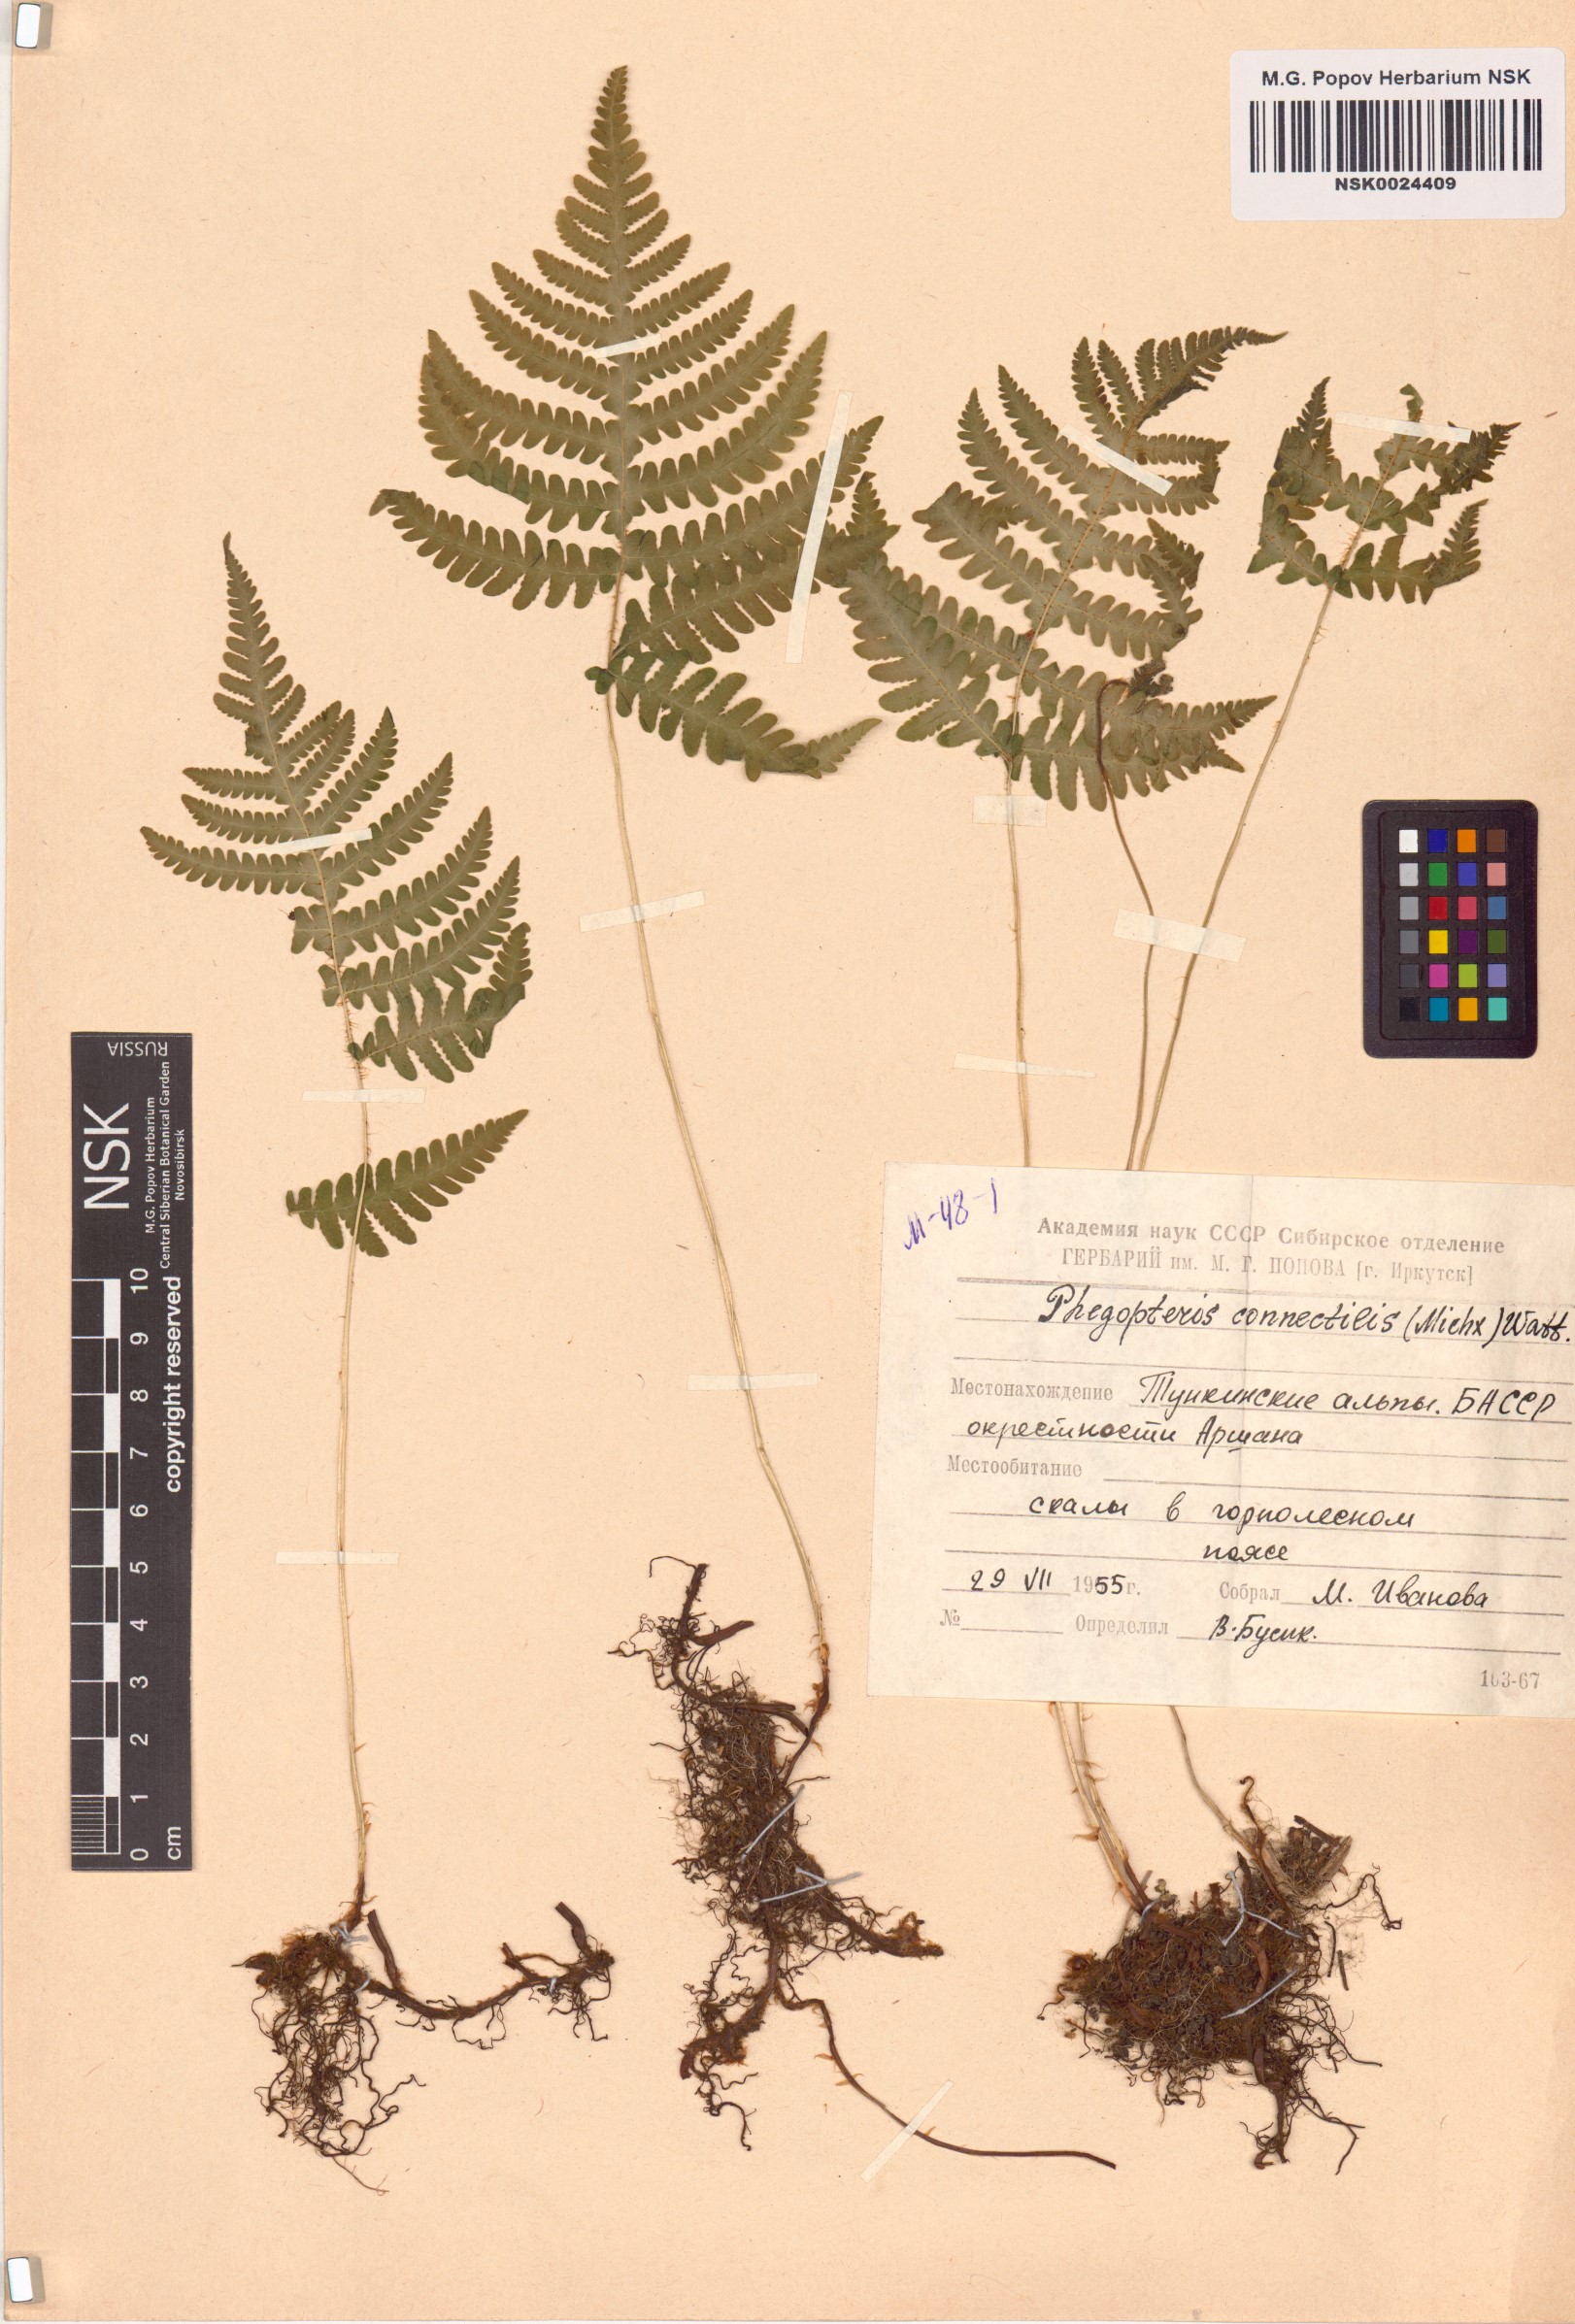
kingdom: Plantae
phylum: Tracheophyta
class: Polypodiopsida
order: Polypodiales
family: Thelypteridaceae
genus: Phegopteris
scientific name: Phegopteris connectilis
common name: Beech fern
